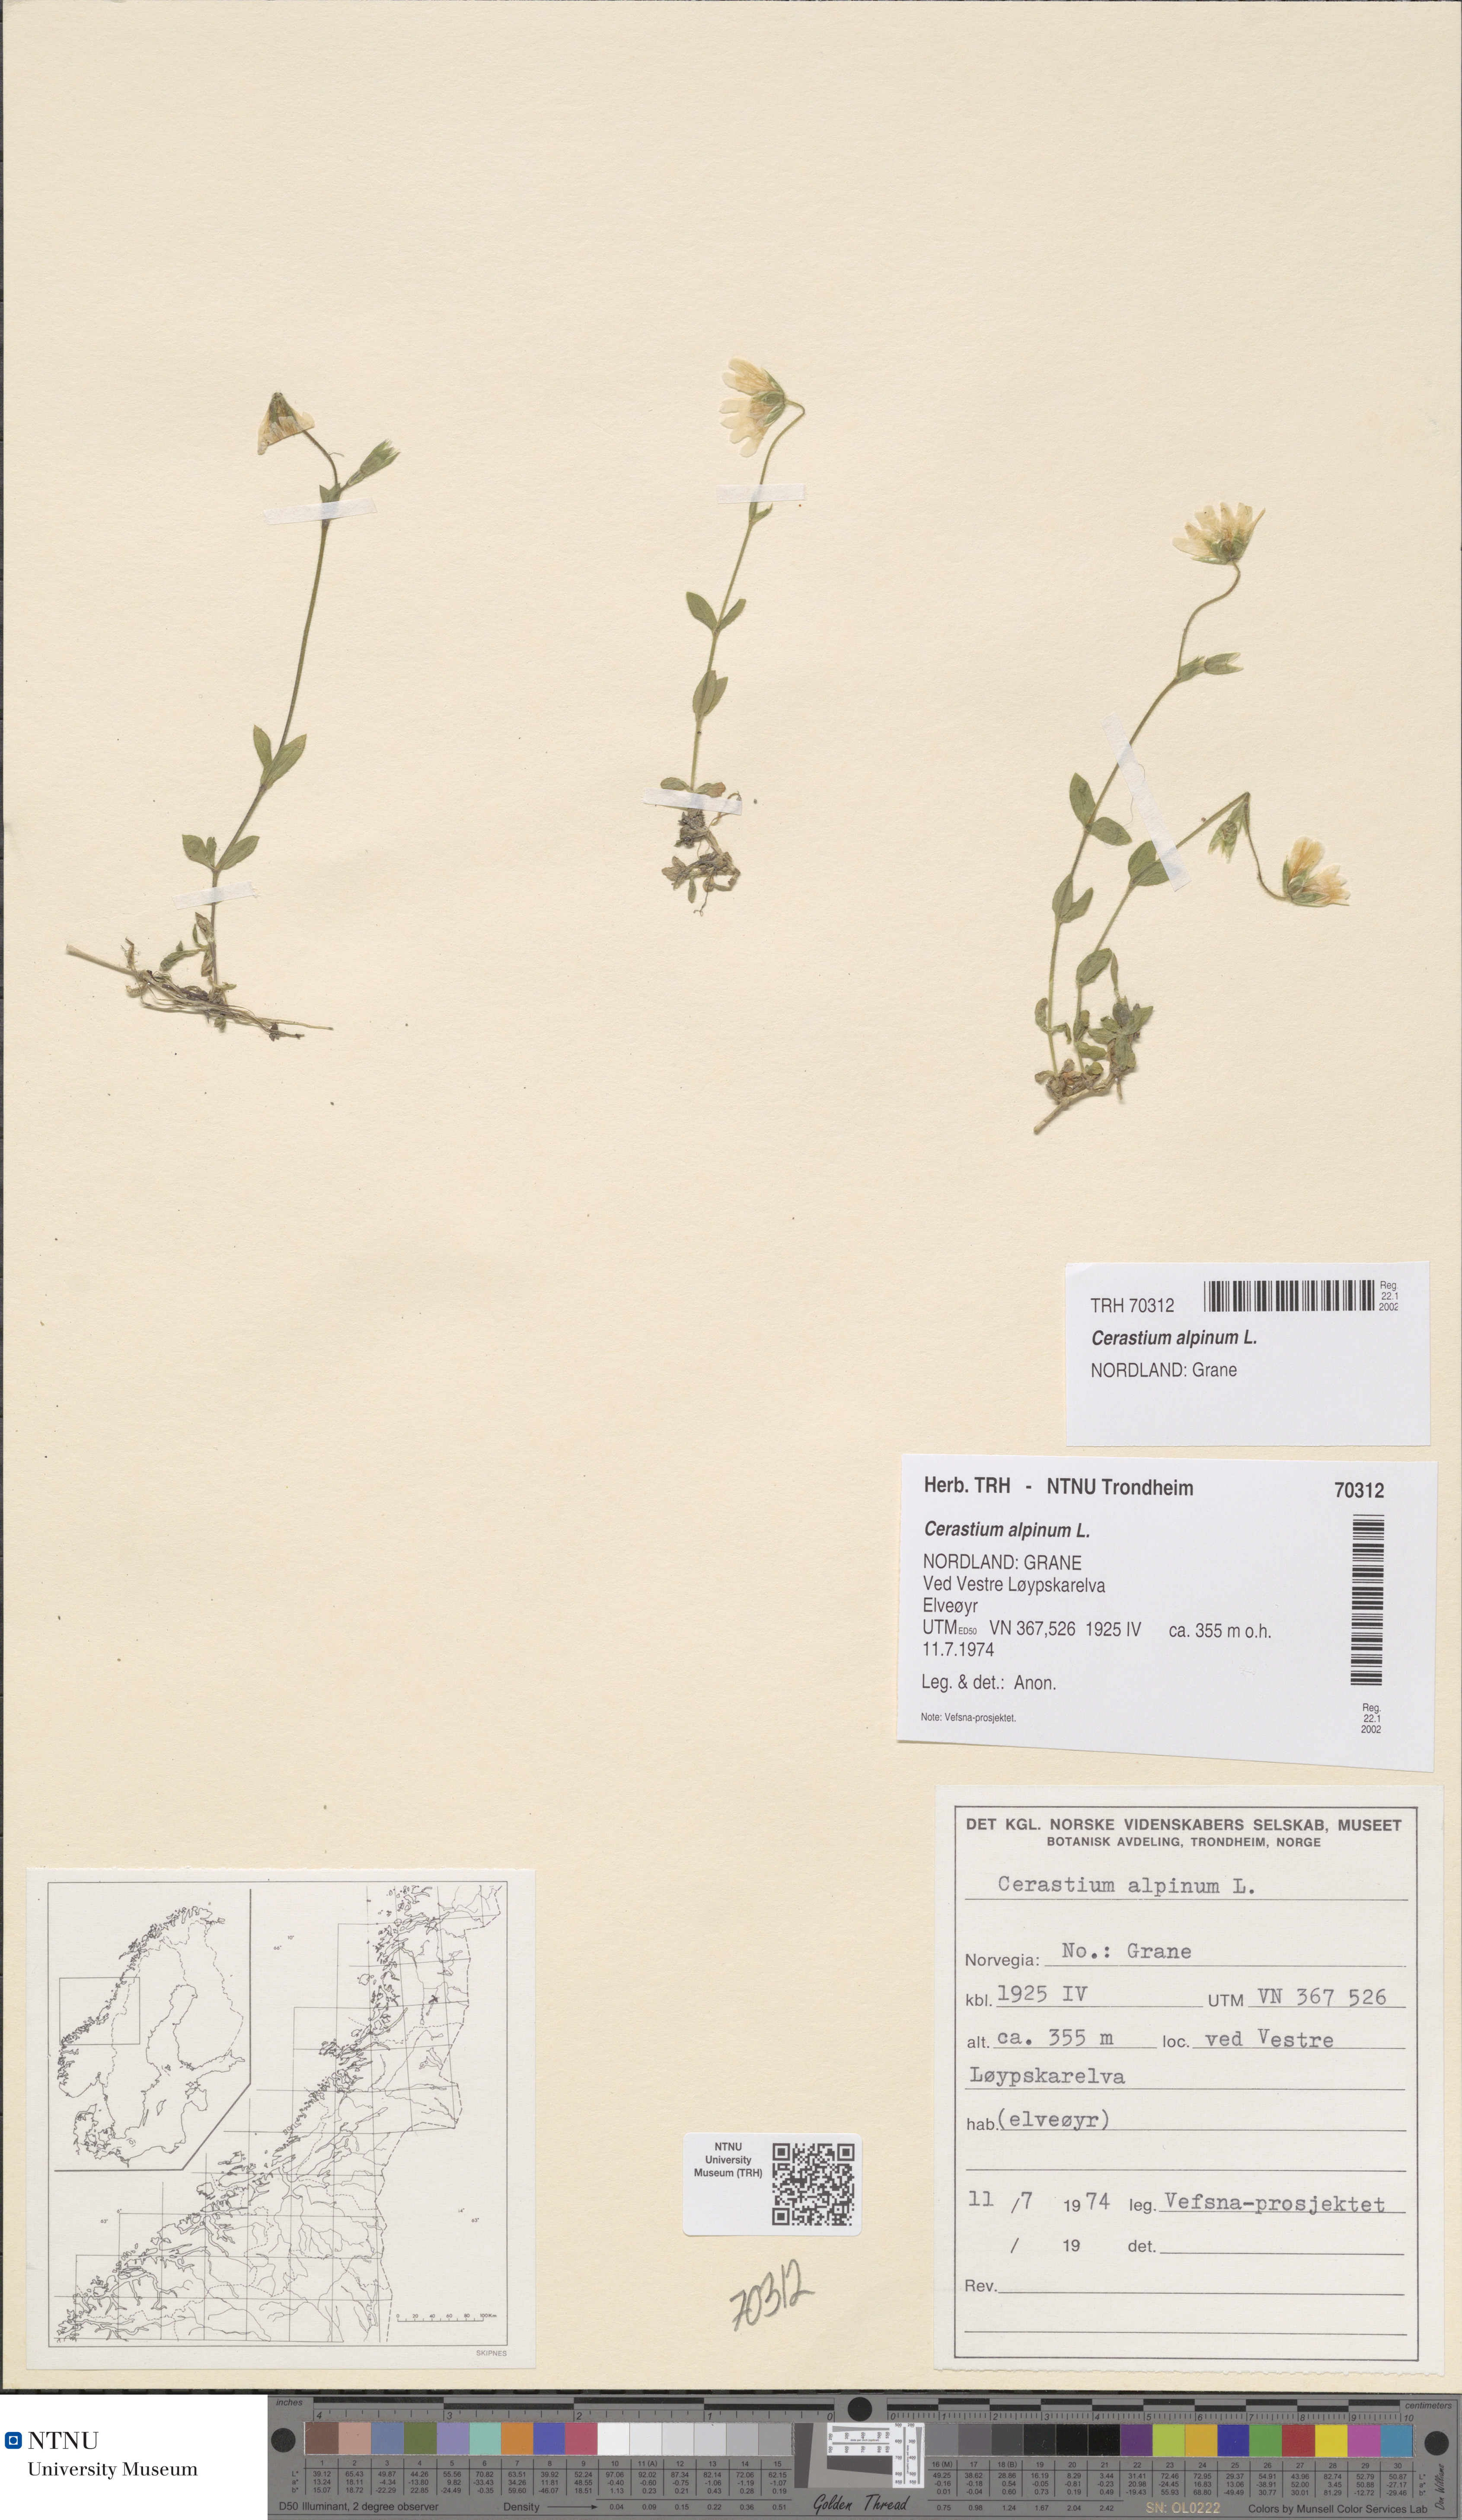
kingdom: Plantae
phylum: Tracheophyta
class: Magnoliopsida
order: Caryophyllales
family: Caryophyllaceae
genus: Cerastium
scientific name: Cerastium alpinum
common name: Alpine mouse-ear
